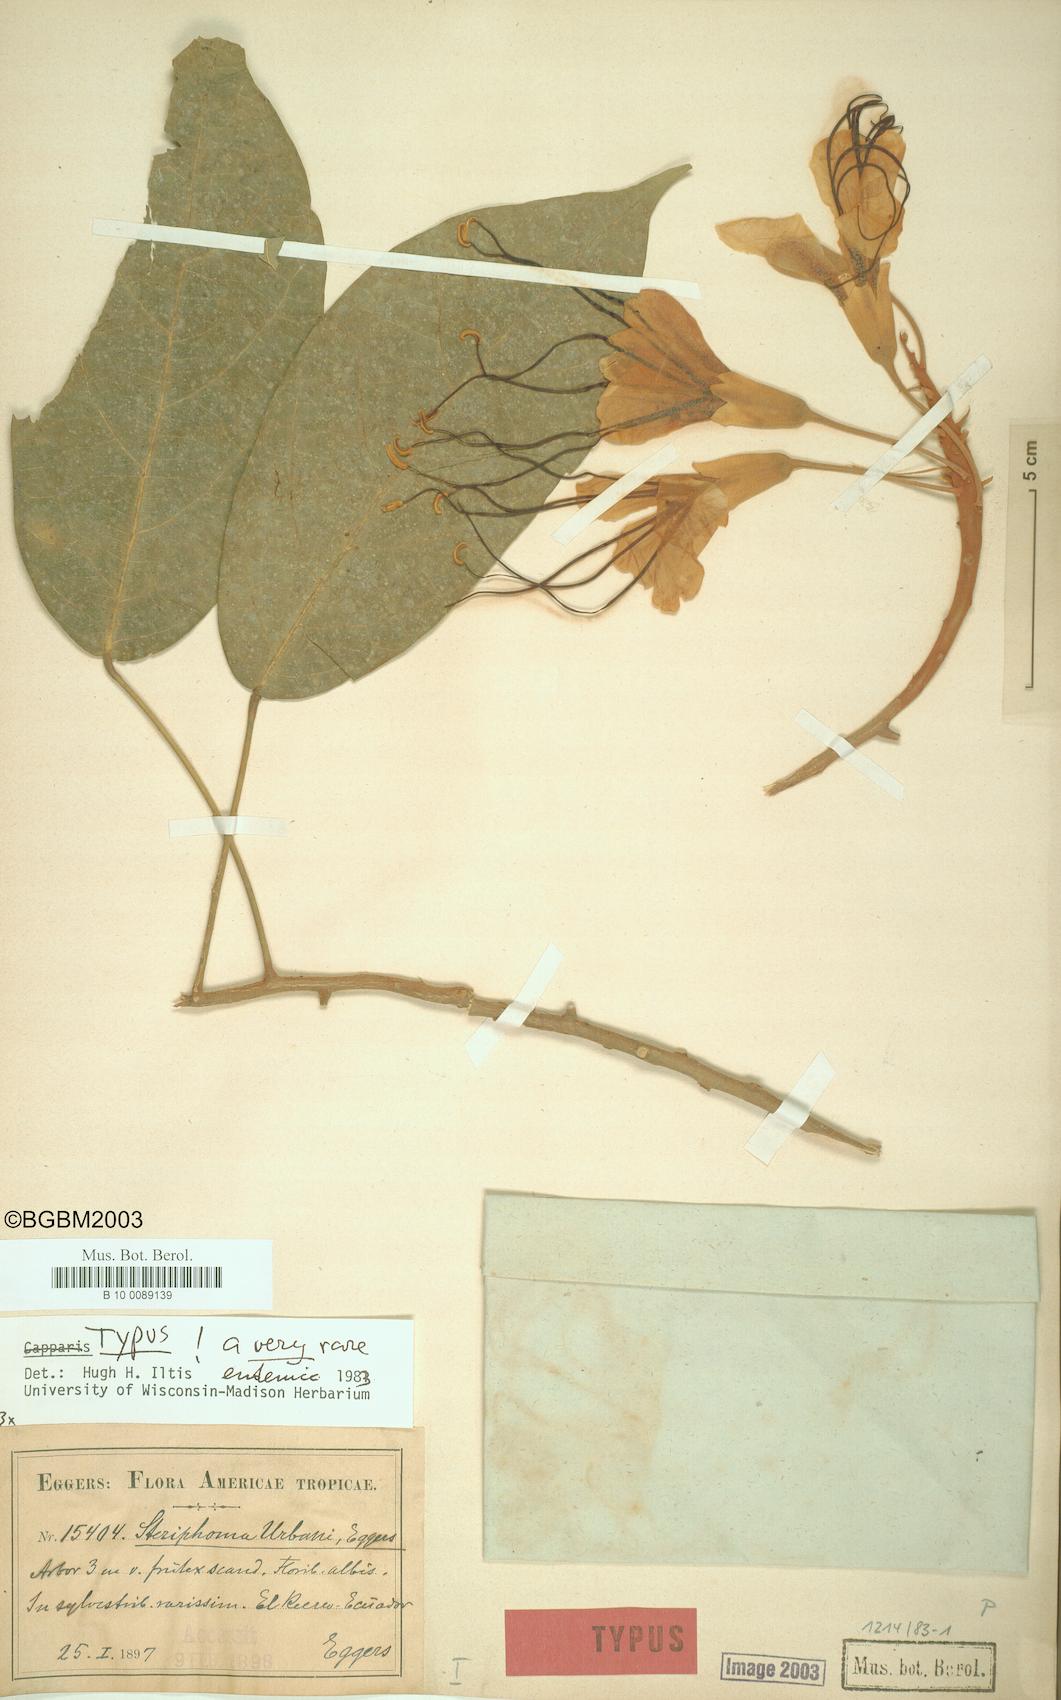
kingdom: Plantae
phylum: Tracheophyta
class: Magnoliopsida
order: Brassicales
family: Capparaceae
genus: Steriphoma
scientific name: Steriphoma urbani
